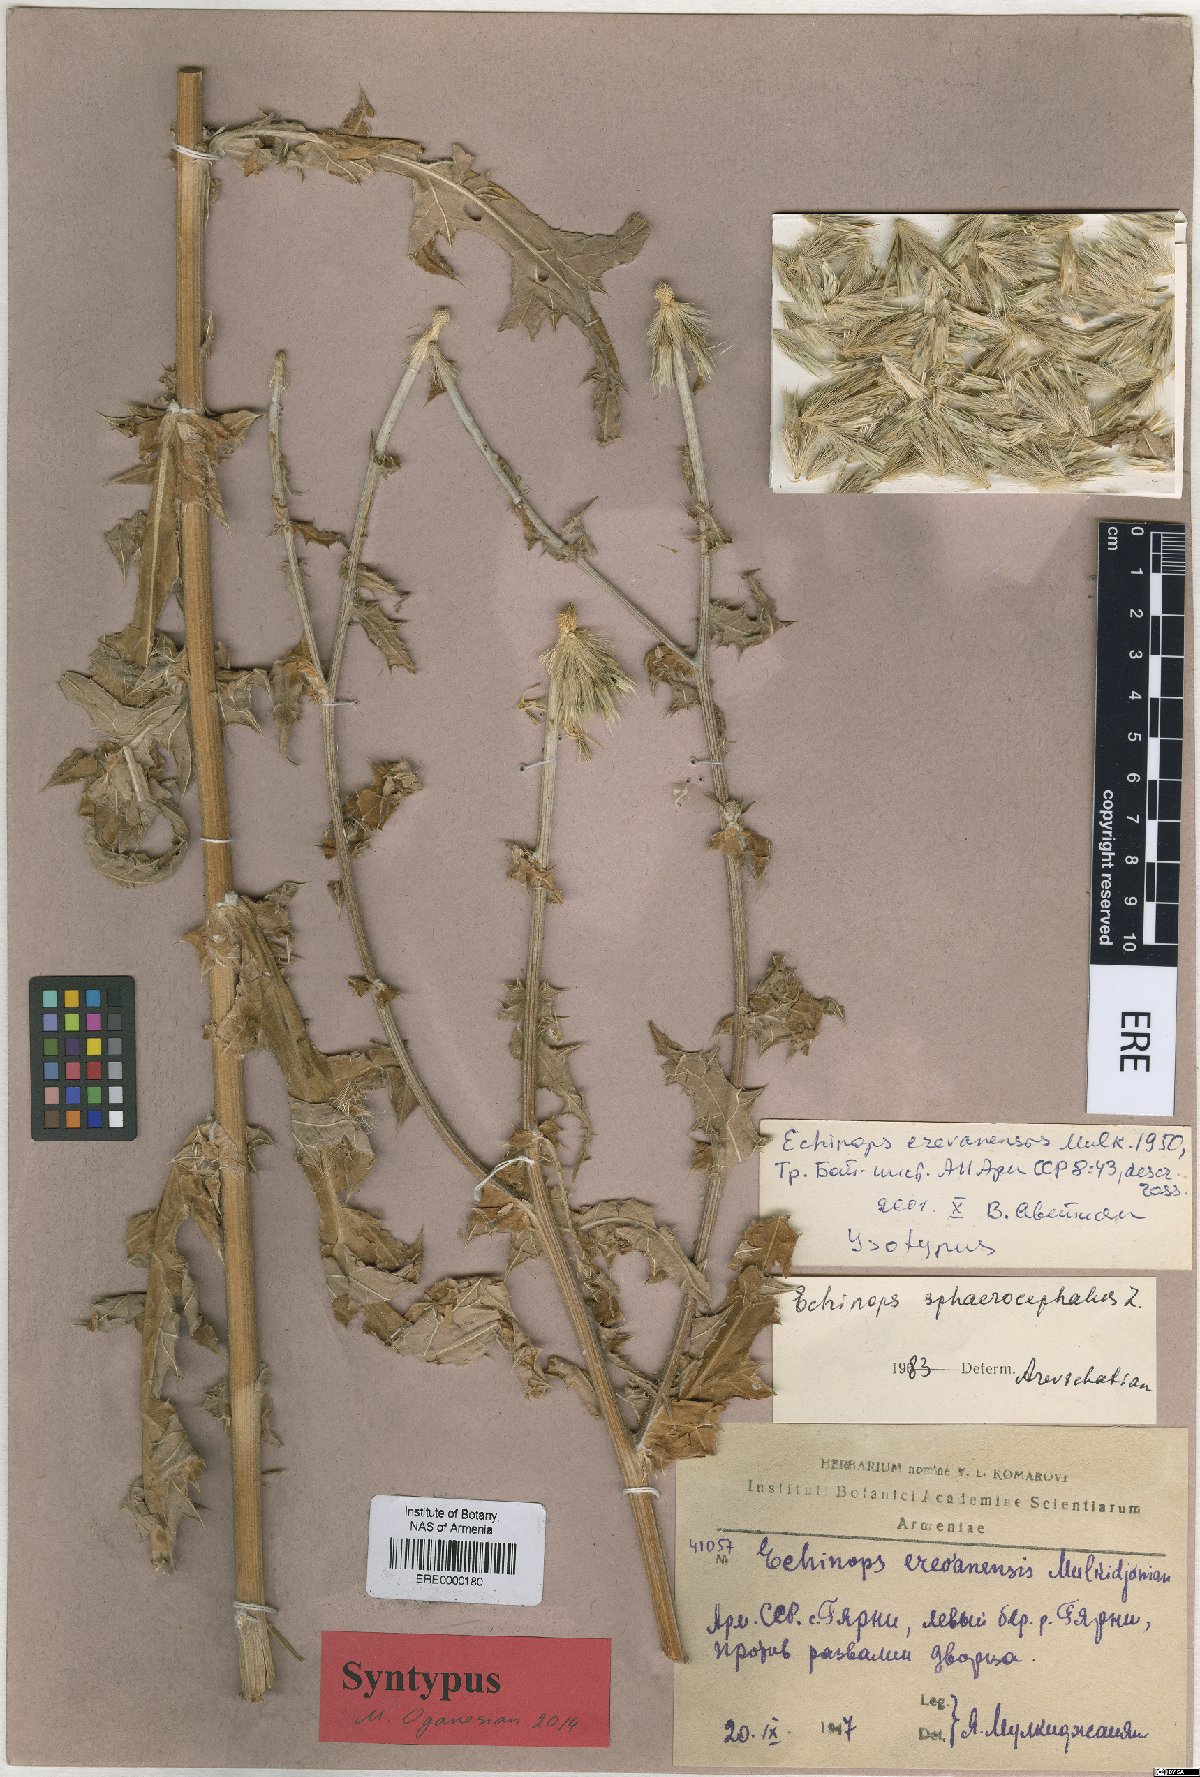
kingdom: Plantae
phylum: Tracheophyta
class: Magnoliopsida
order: Asterales
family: Asteraceae
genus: Echinops
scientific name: Echinops sphaerocephalus
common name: Glandular globe-thistle
